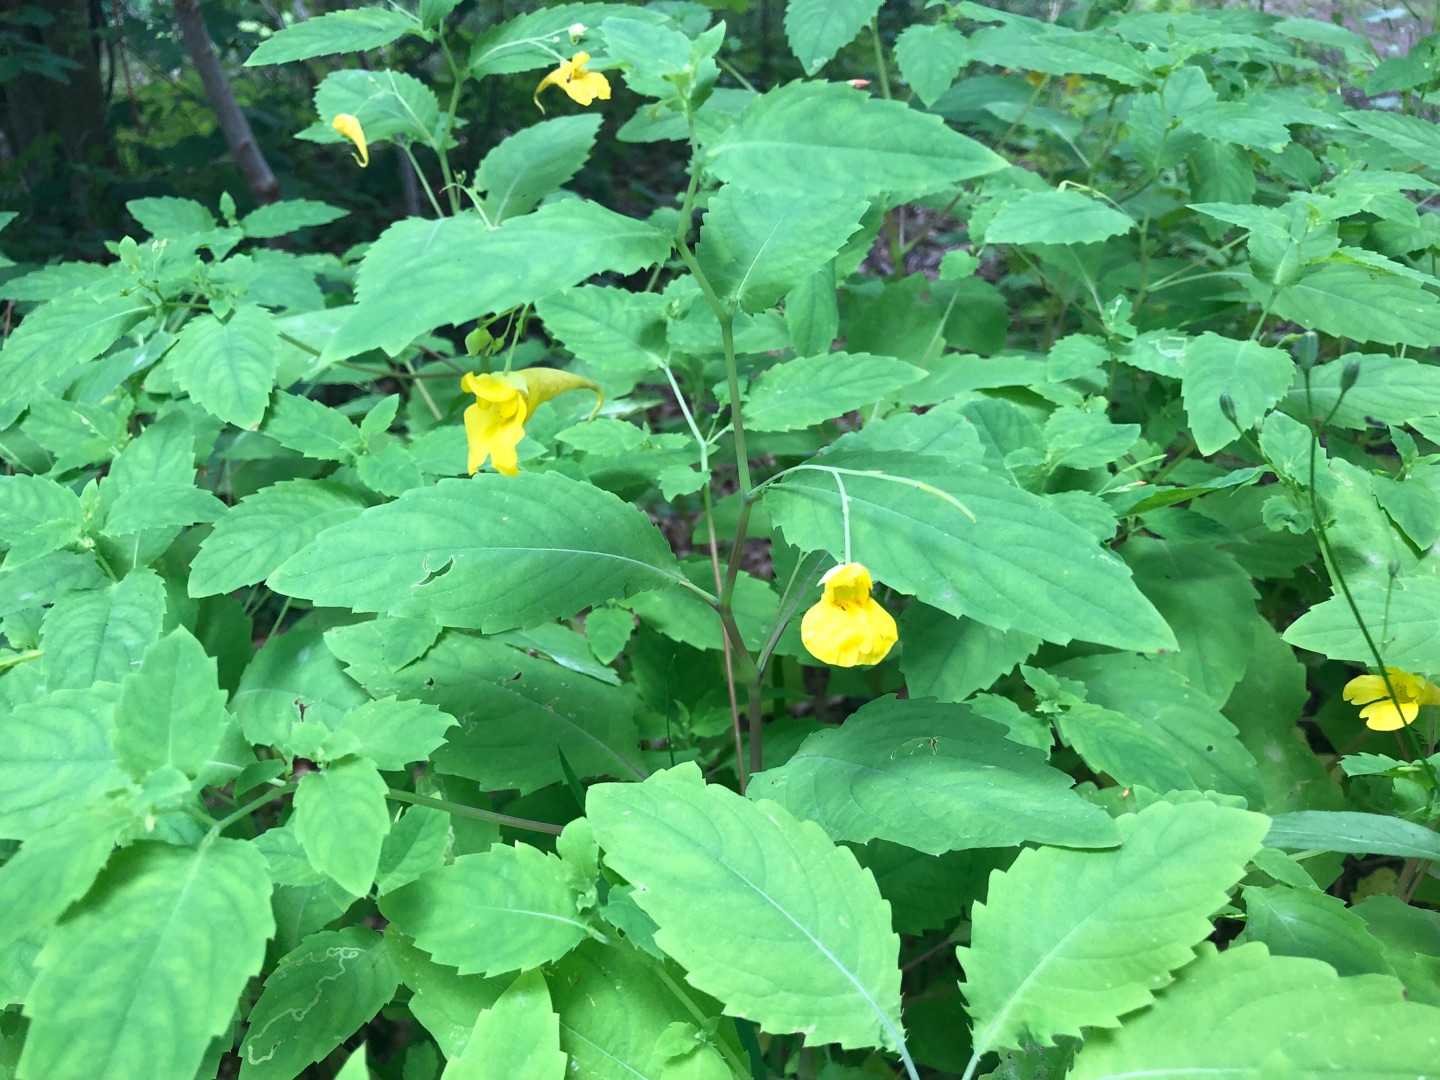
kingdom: Plantae
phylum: Tracheophyta
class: Magnoliopsida
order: Ericales
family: Balsaminaceae
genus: Impatiens
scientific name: Impatiens noli-tangere
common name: Spring-balsamin
